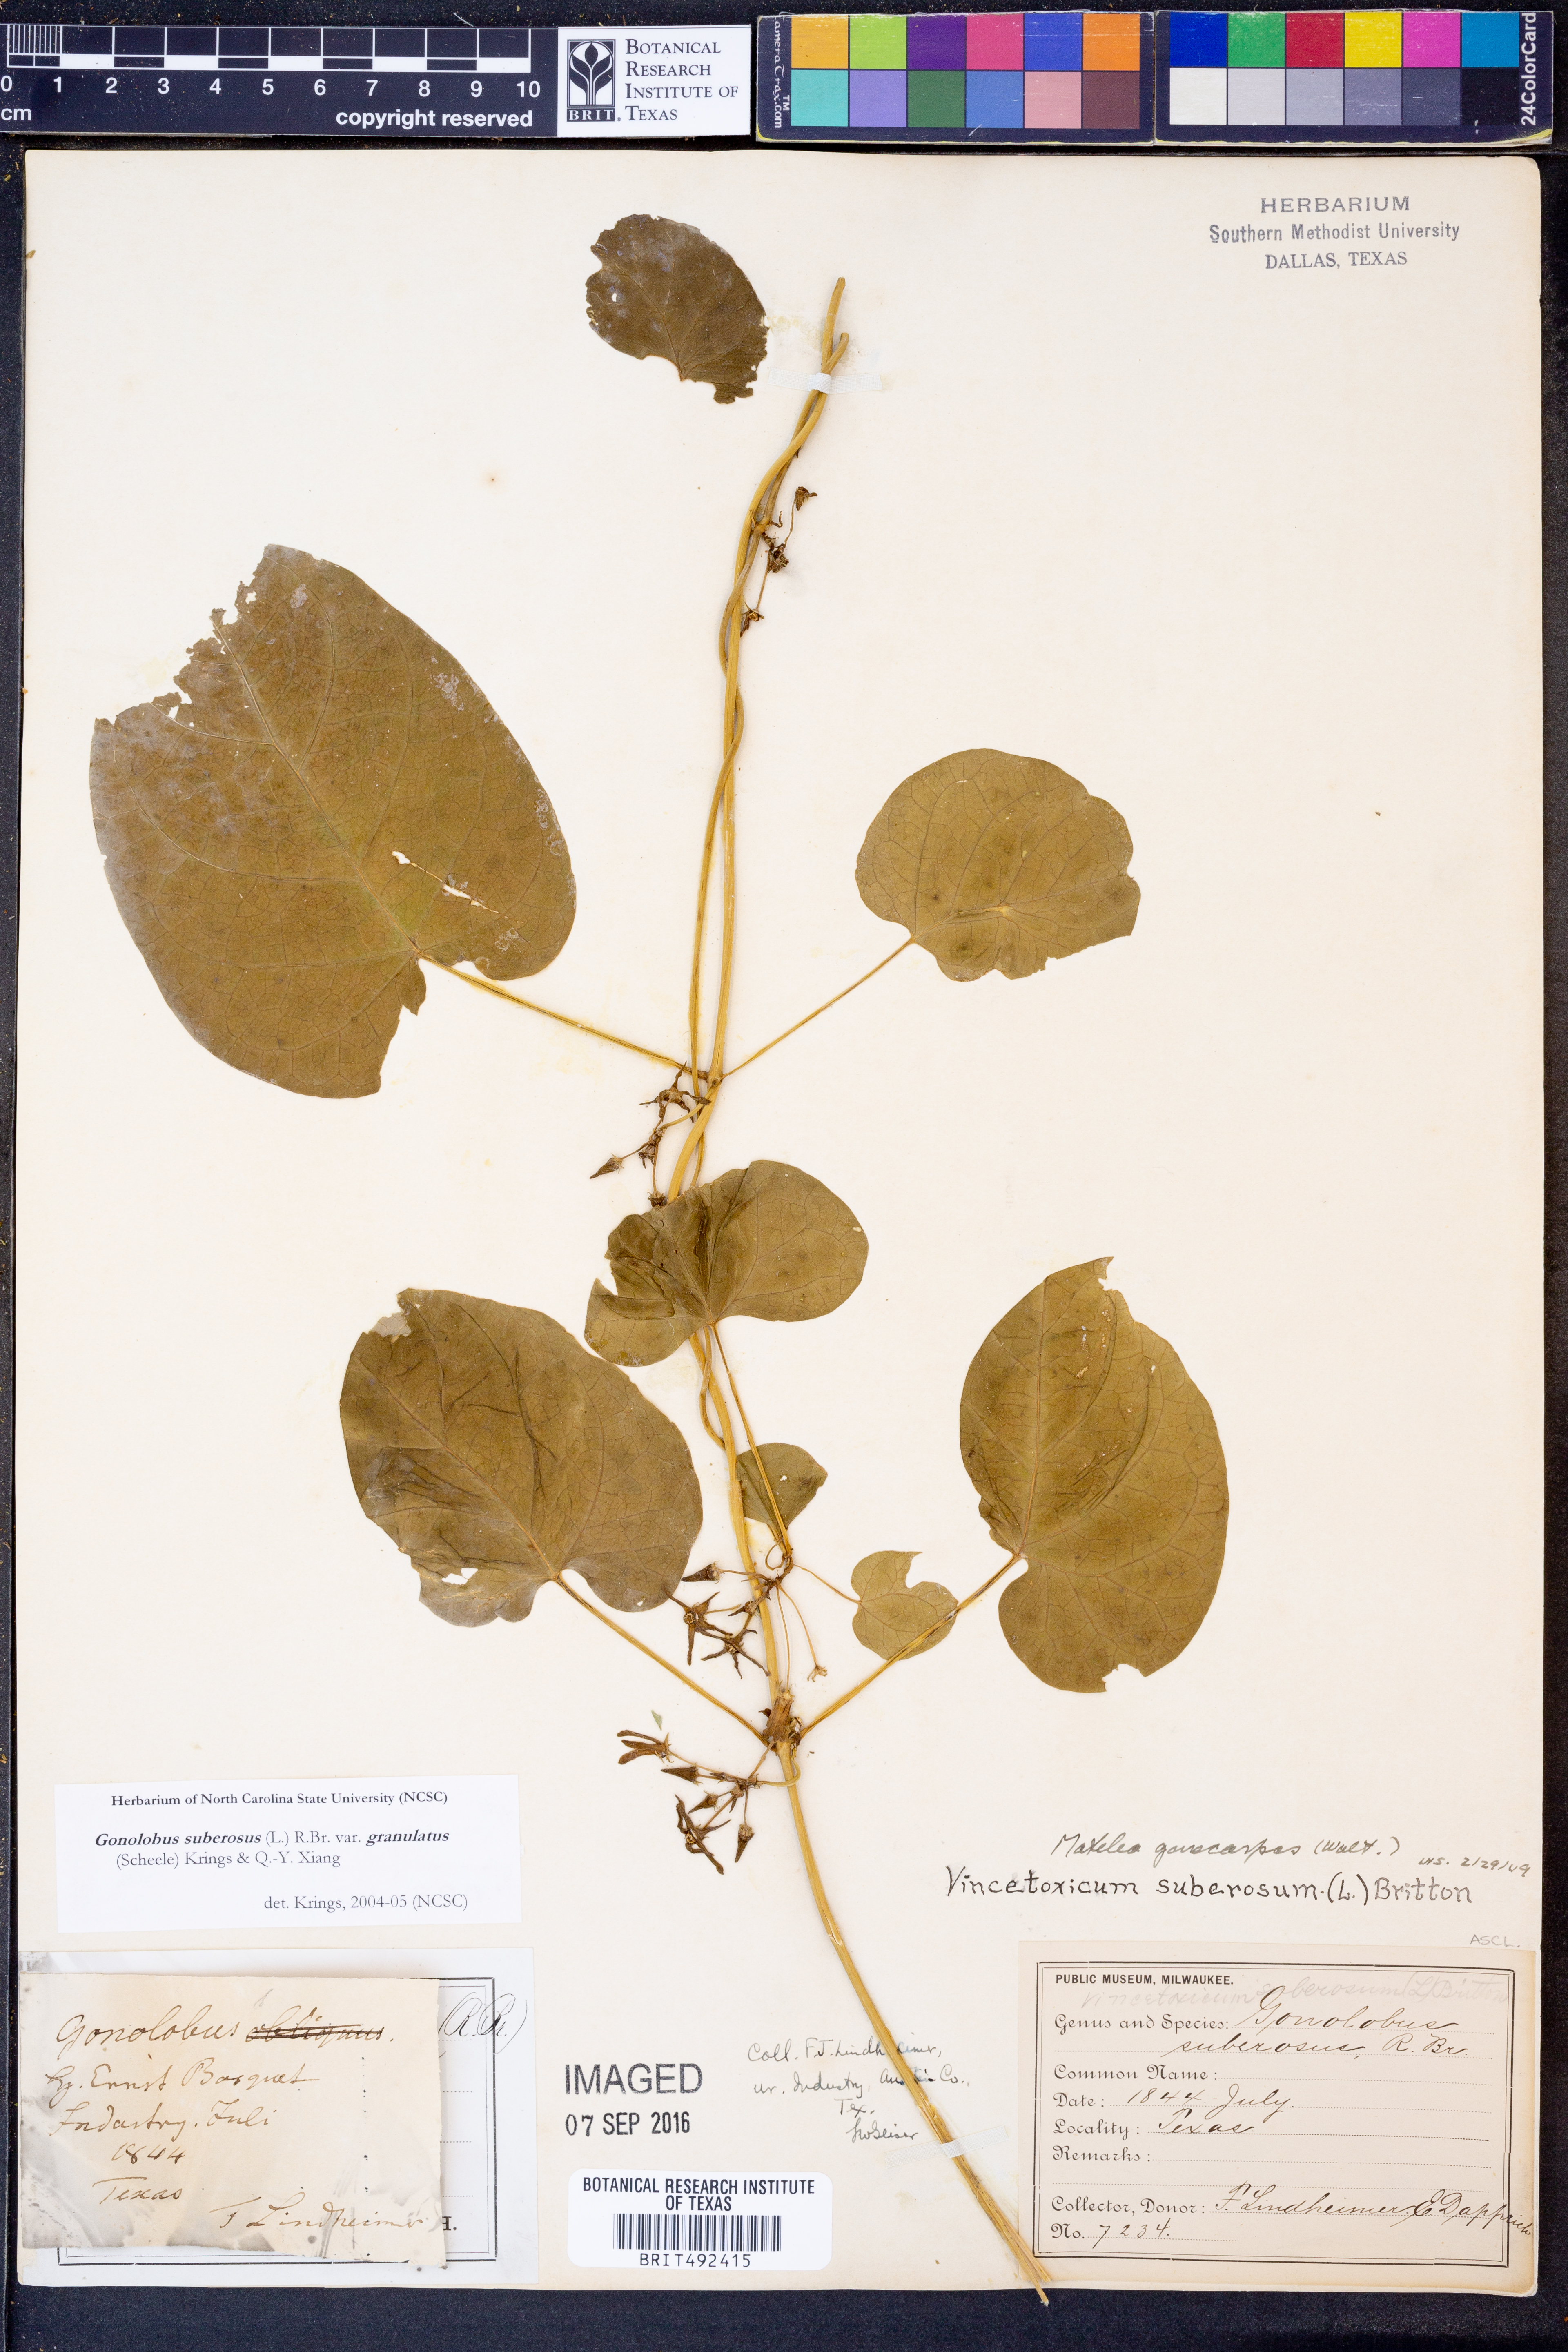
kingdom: Plantae
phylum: Tracheophyta
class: Magnoliopsida
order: Gentianales
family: Apocynaceae
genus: Gonolobus
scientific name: Gonolobus suberosus
